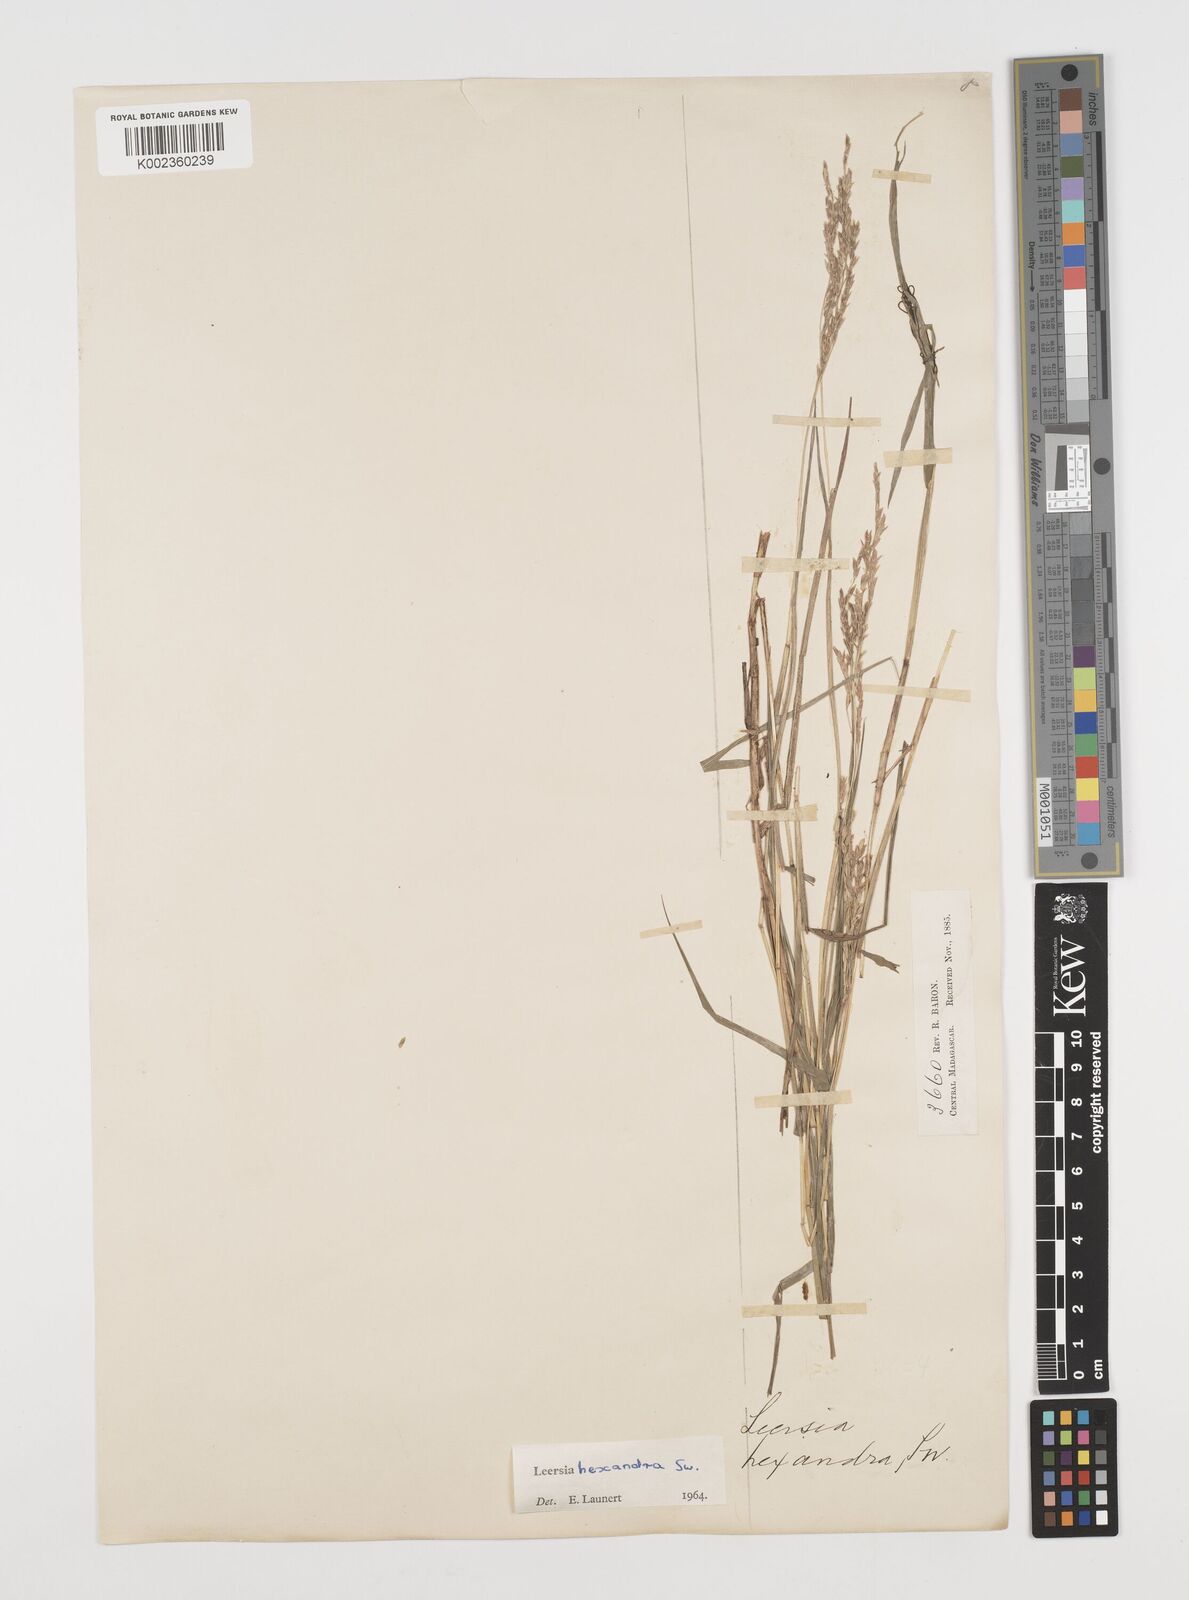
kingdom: Plantae
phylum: Tracheophyta
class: Liliopsida
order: Poales
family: Poaceae
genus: Leersia
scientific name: Leersia hexandra
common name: Southern cut grass
